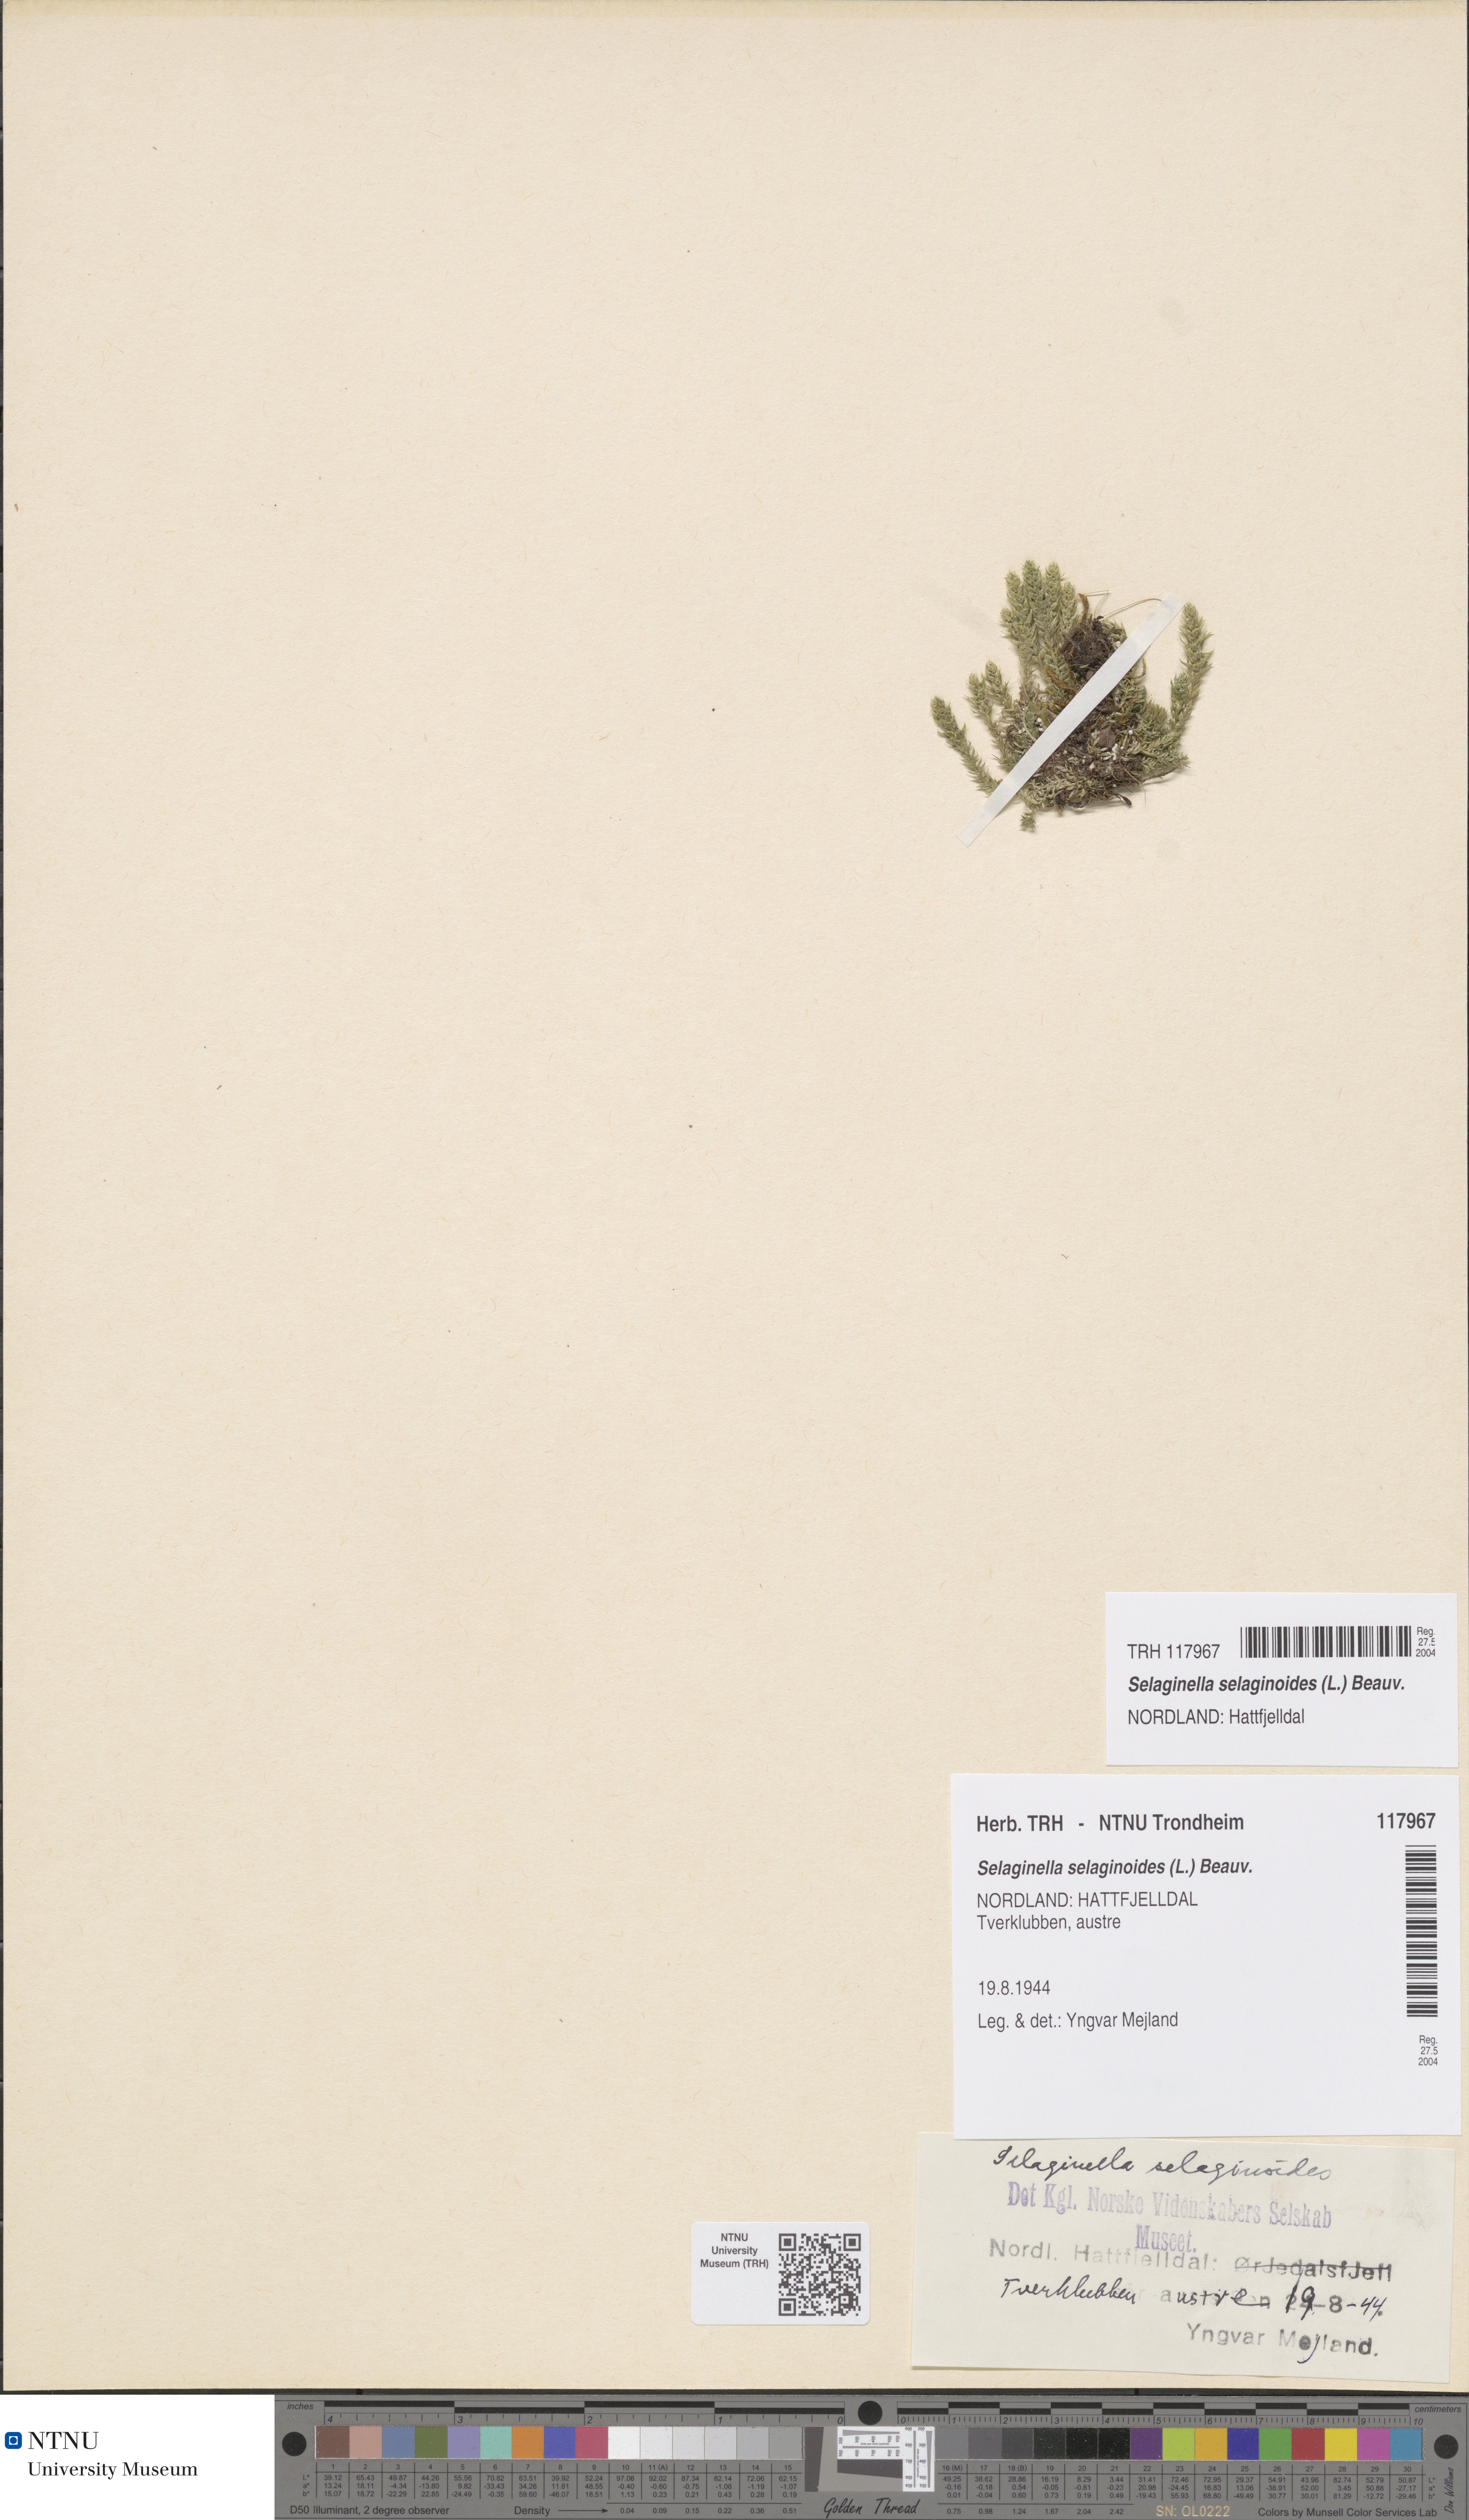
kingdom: Plantae
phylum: Tracheophyta
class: Lycopodiopsida
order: Selaginellales
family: Selaginellaceae
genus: Selaginella
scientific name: Selaginella selaginoides
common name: Prickly mountain-moss
